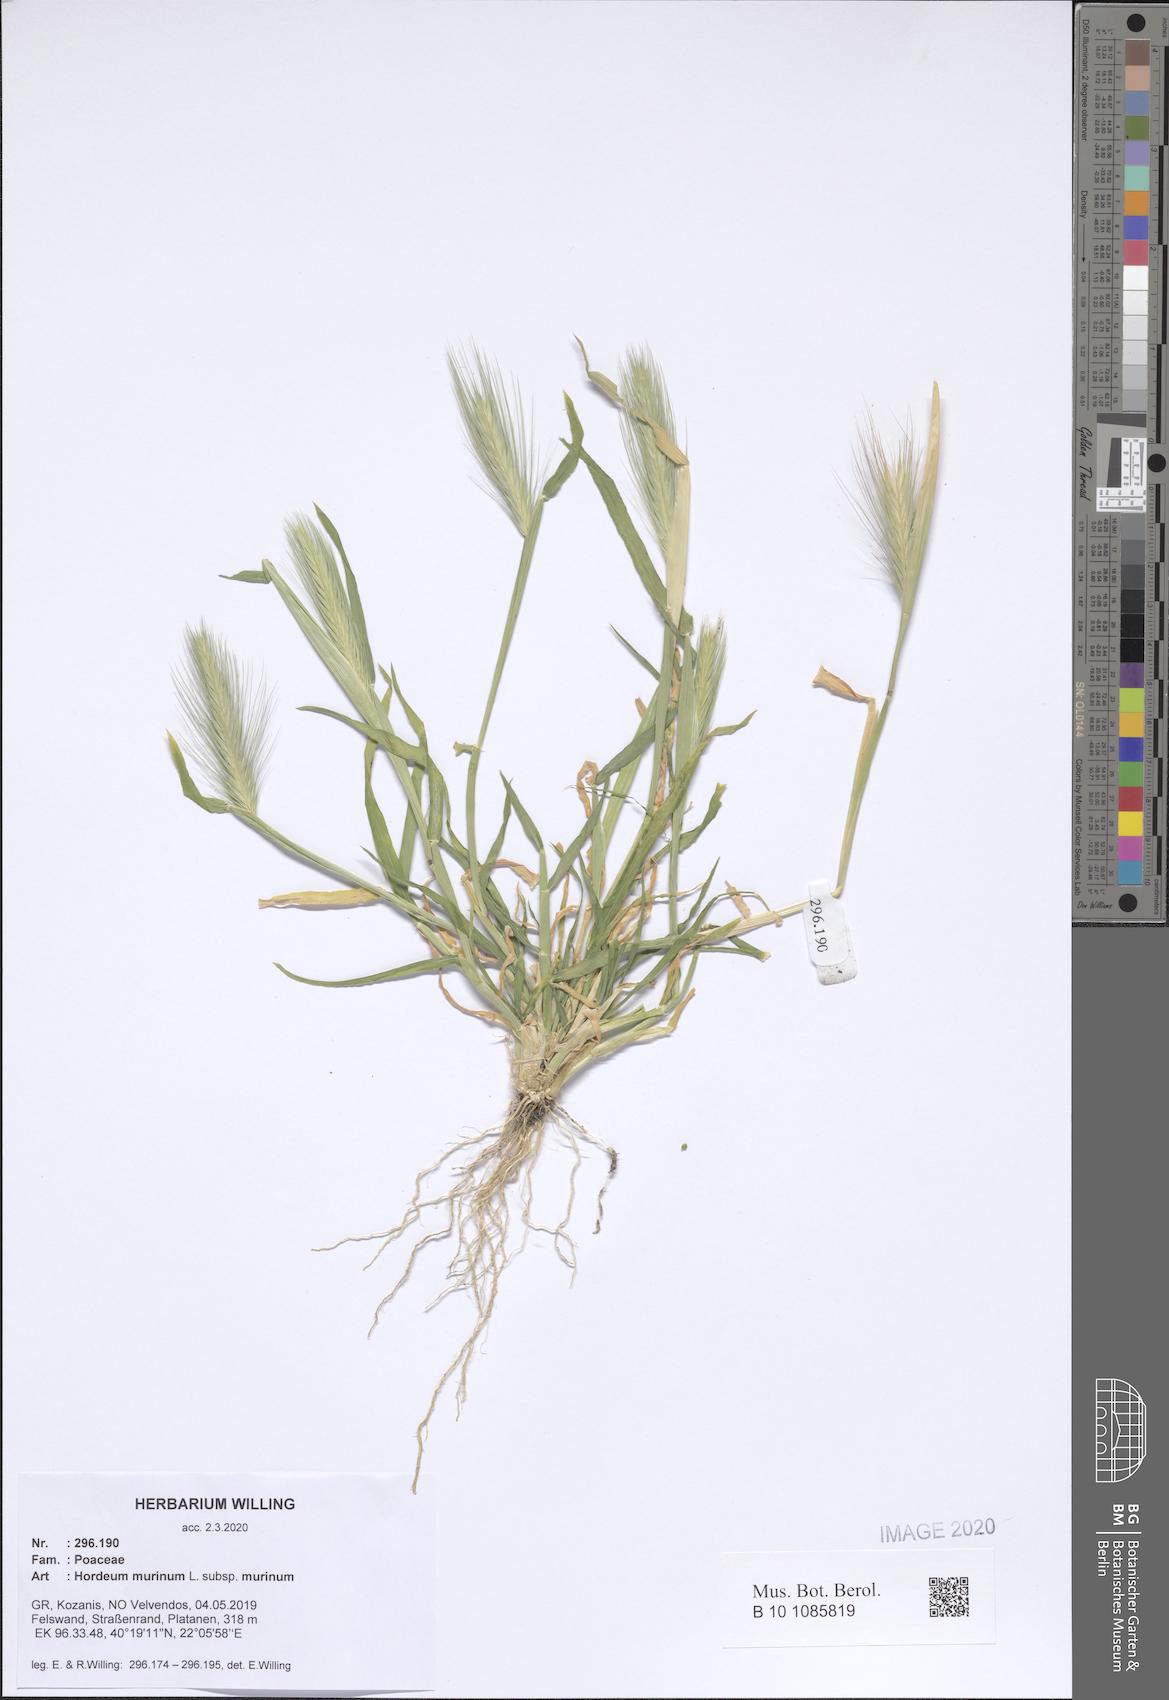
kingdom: Plantae
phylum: Tracheophyta
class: Liliopsida
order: Poales
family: Poaceae
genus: Hordeum
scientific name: Hordeum murinum
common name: Wall barley
